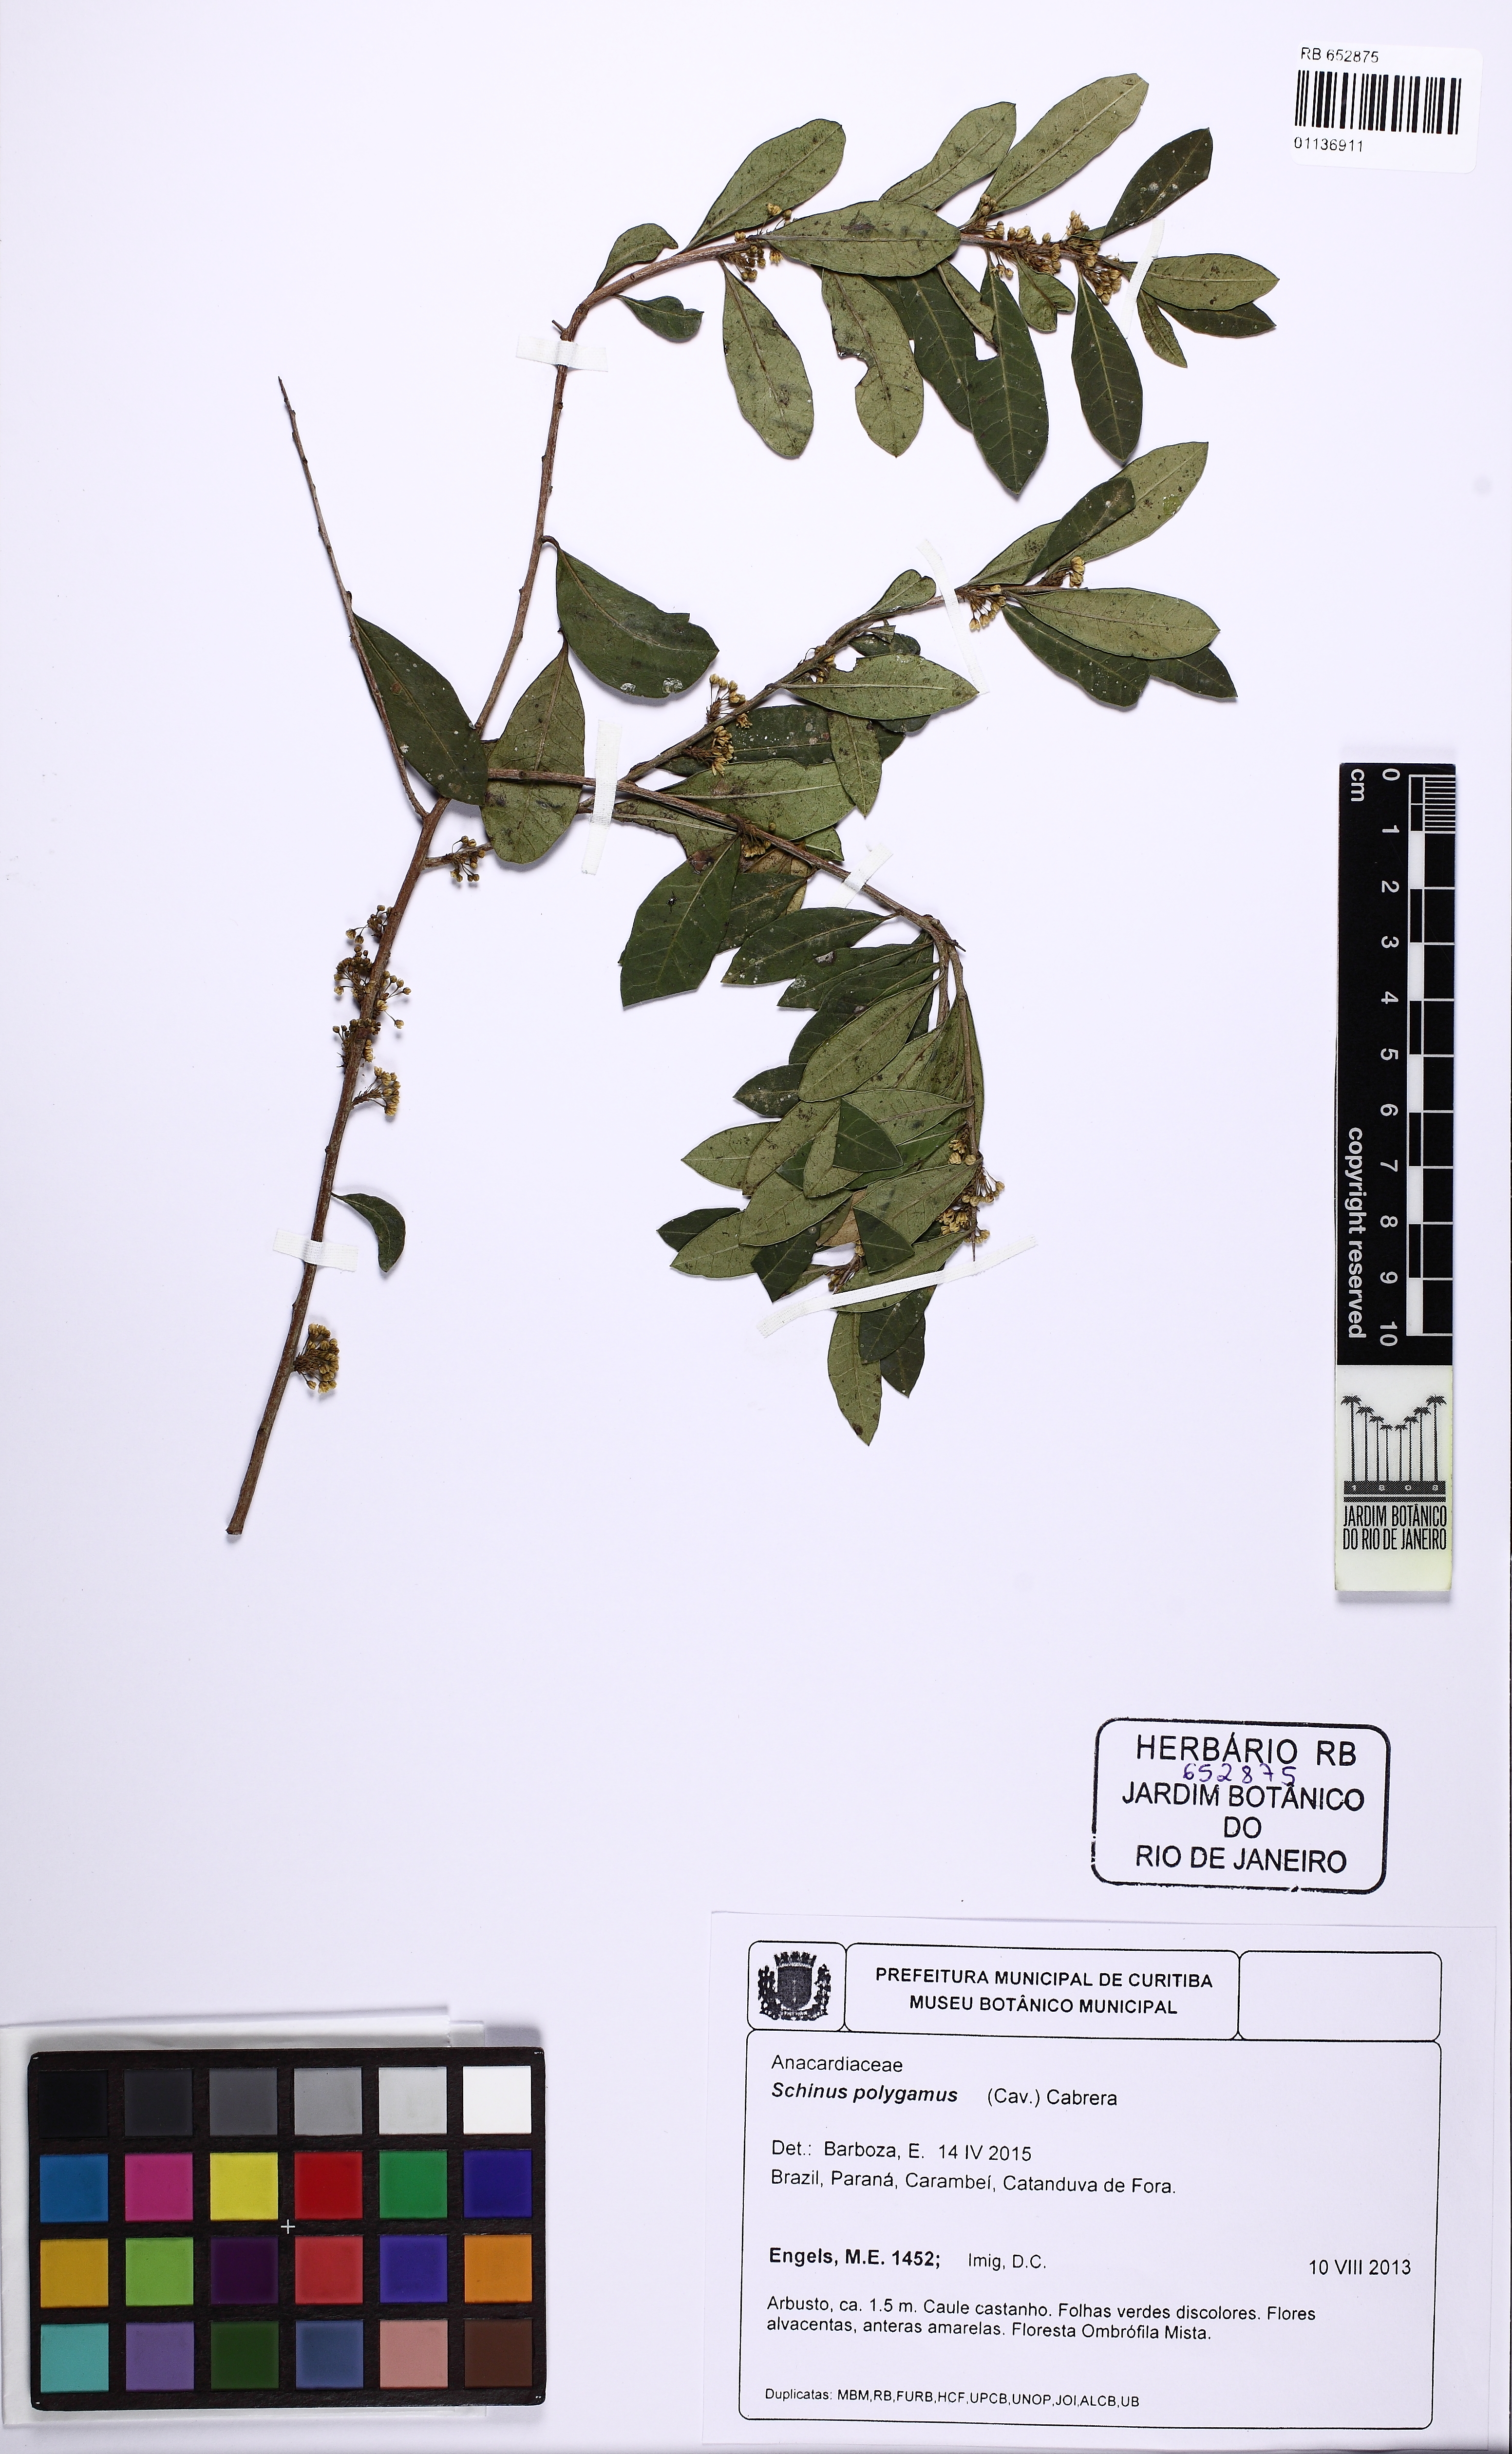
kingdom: Plantae
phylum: Tracheophyta
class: Magnoliopsida
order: Sapindales
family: Anacardiaceae
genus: Schinus
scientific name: Schinus polygama
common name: Hardee peppertree
